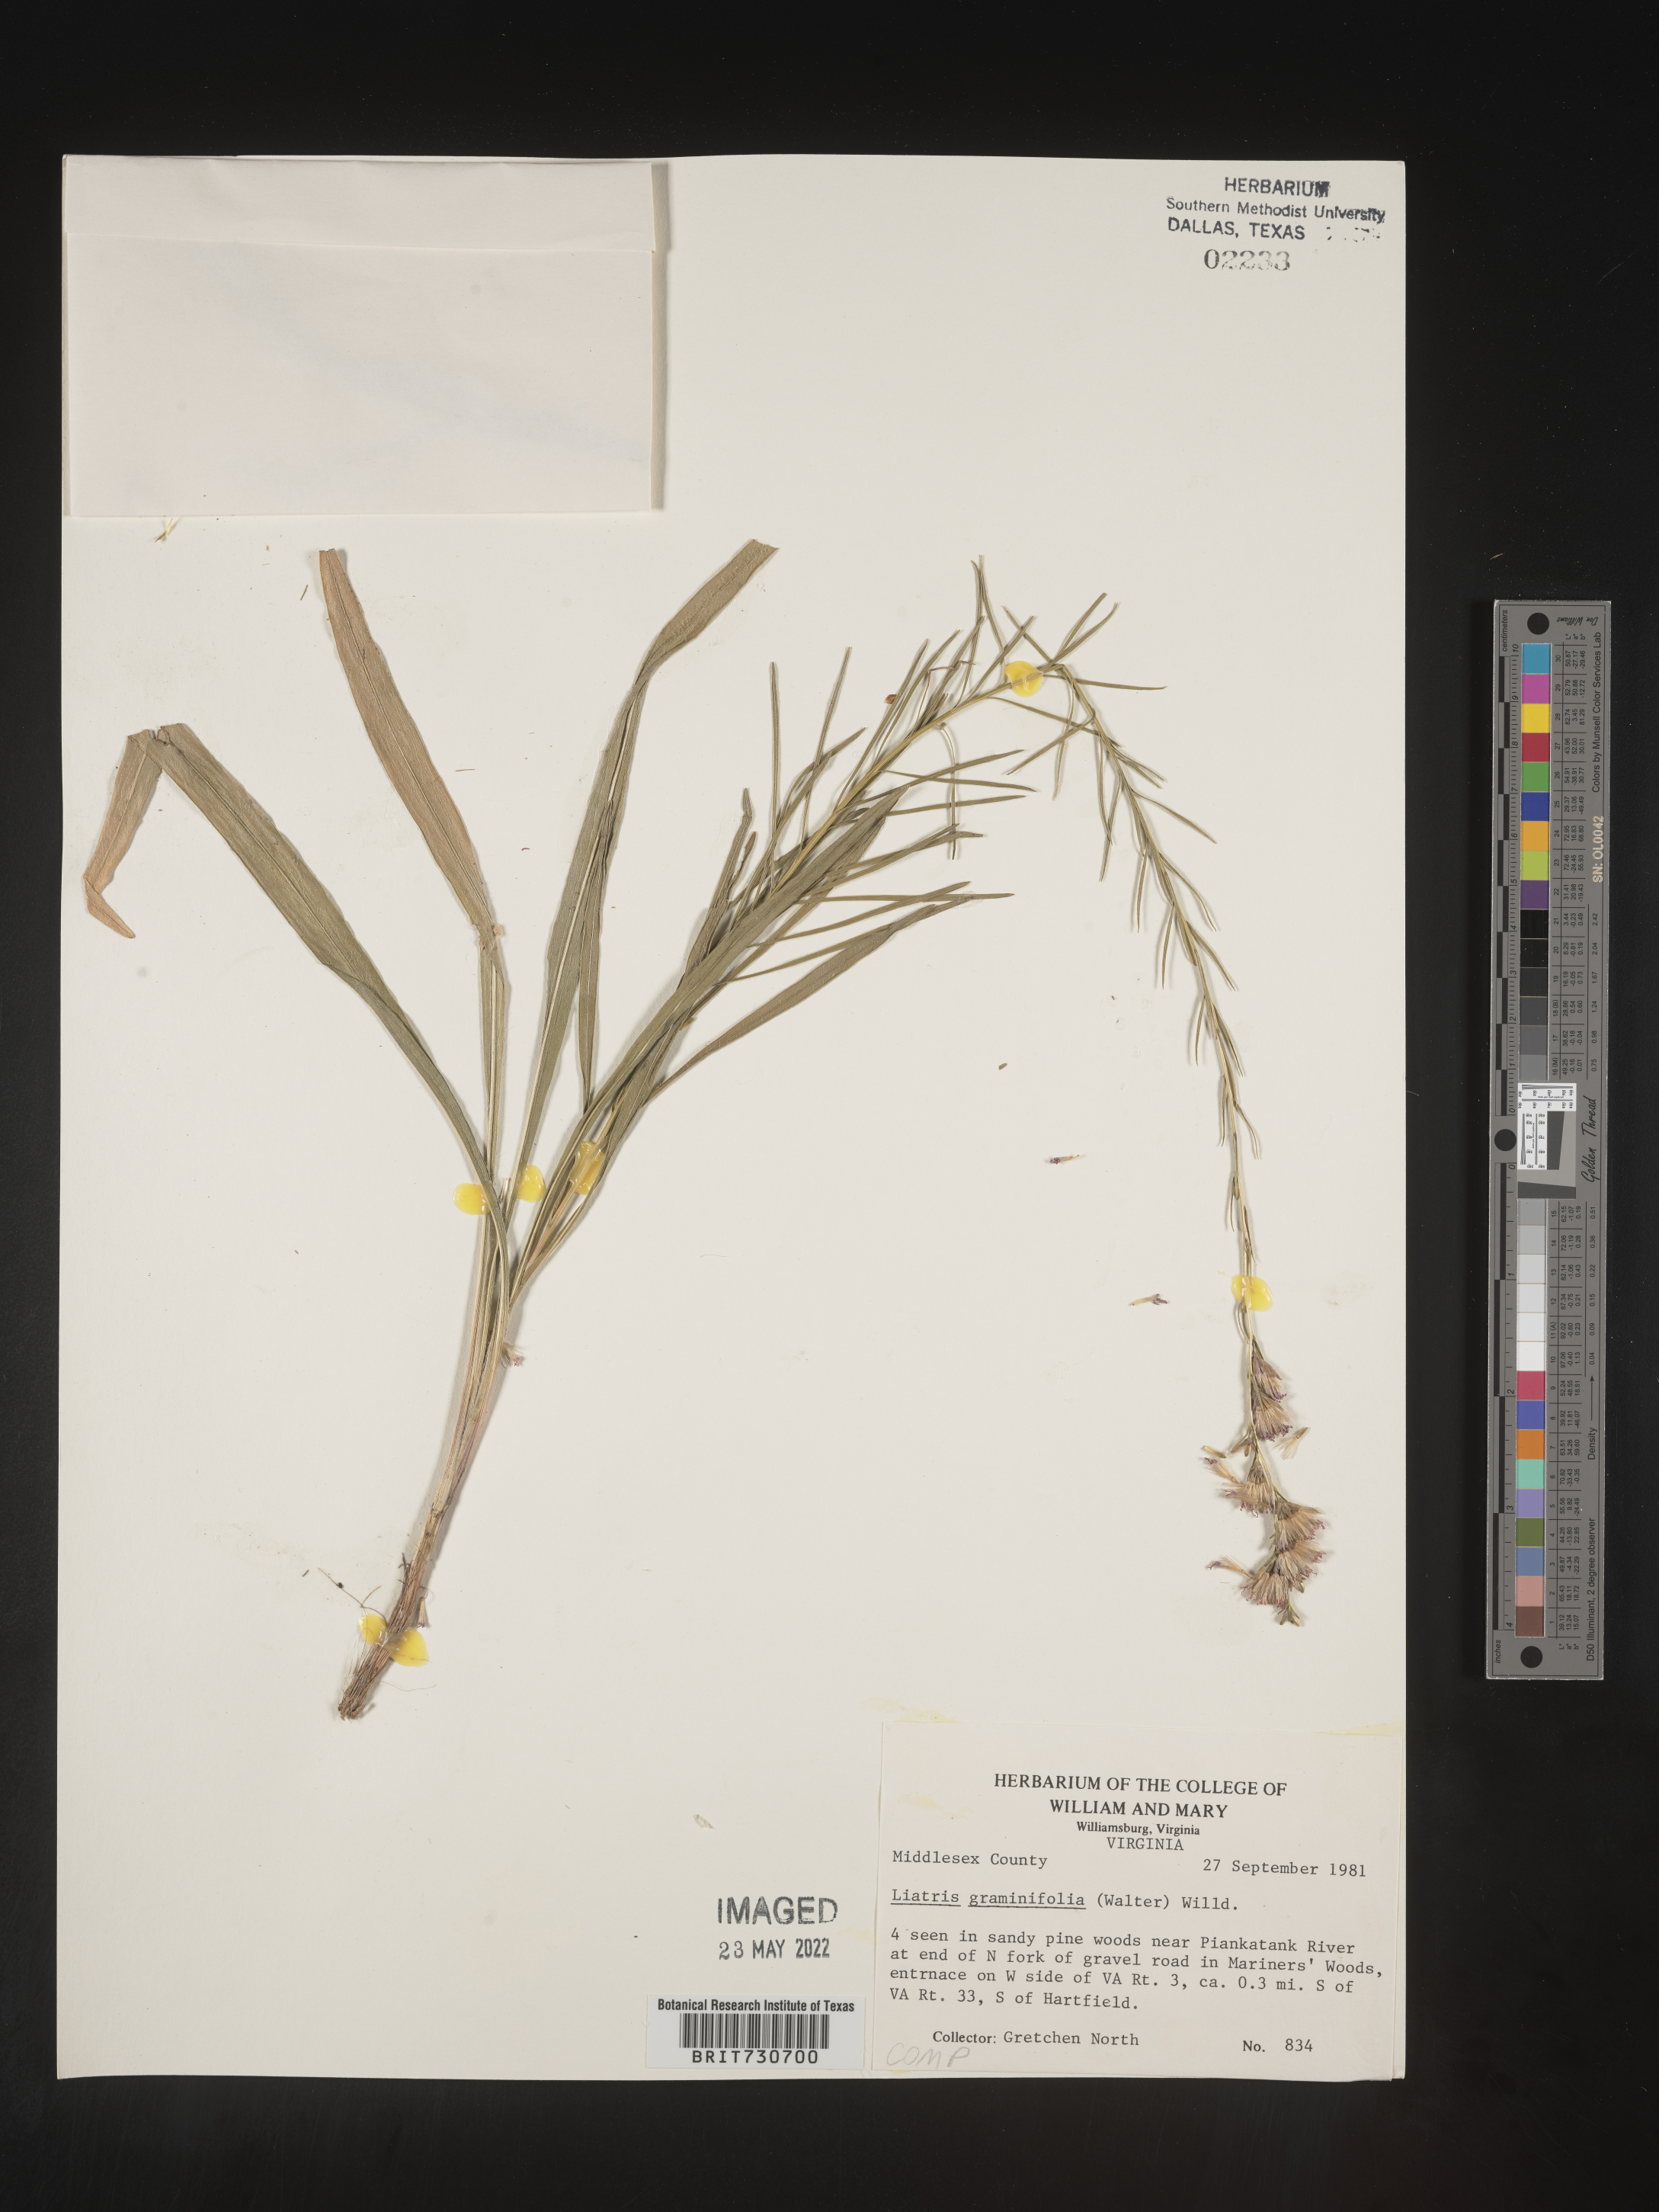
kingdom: Plantae
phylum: Tracheophyta
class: Magnoliopsida
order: Asterales
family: Asteraceae
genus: Liatris
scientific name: Liatris pilosa
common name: Grass-leaf gayfeather
